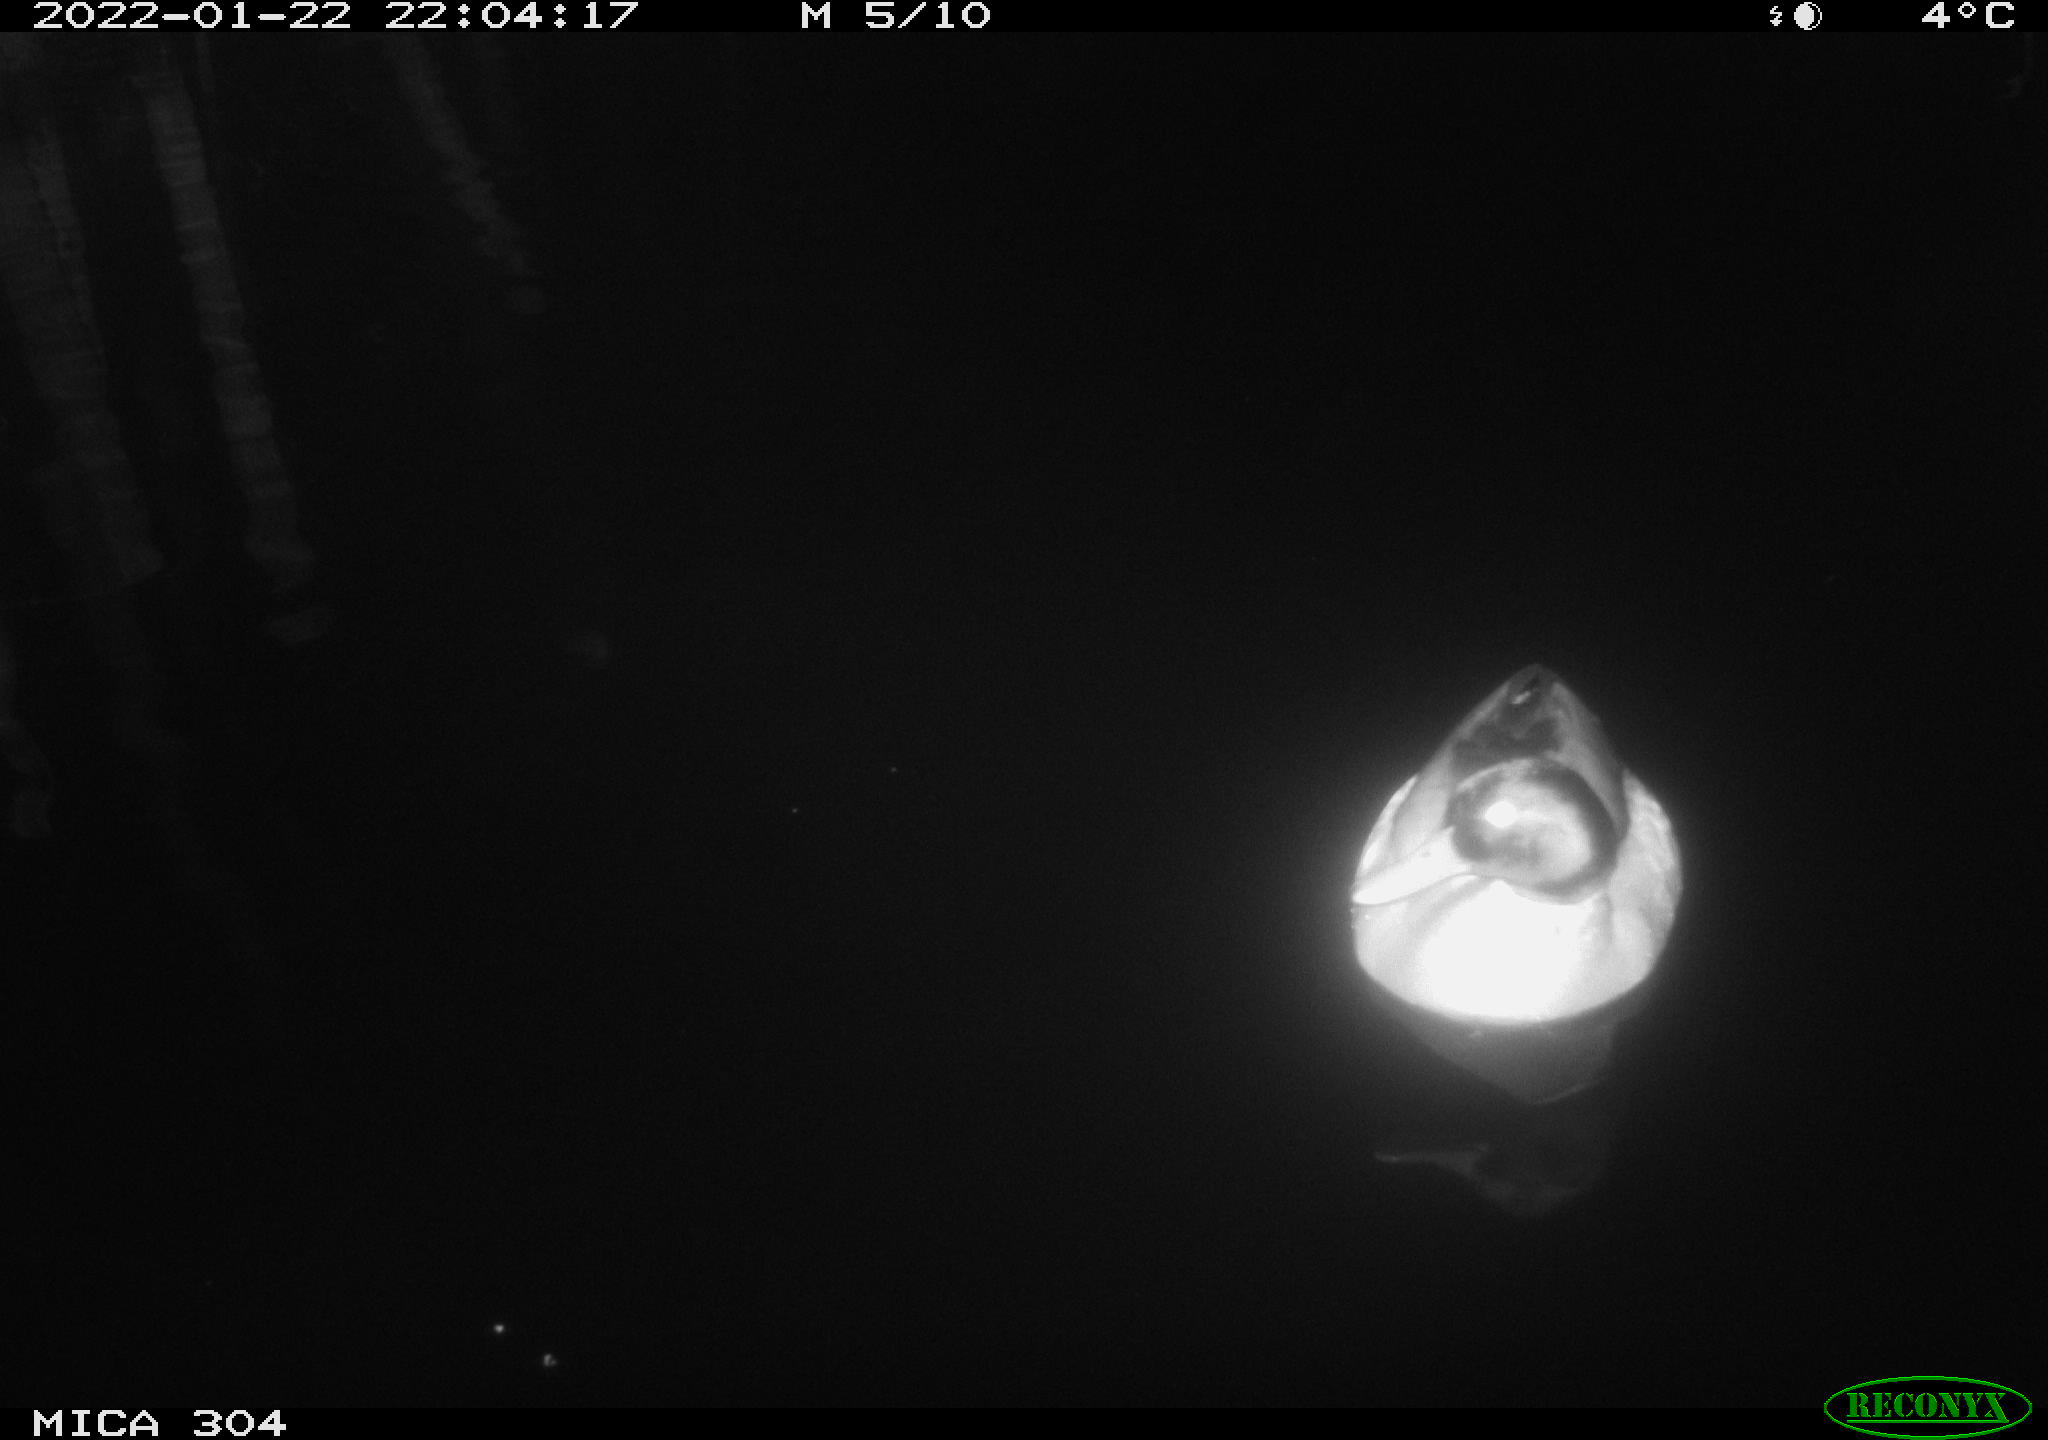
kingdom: Animalia
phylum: Chordata
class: Aves
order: Anseriformes
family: Anatidae
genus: Anas
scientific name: Anas
